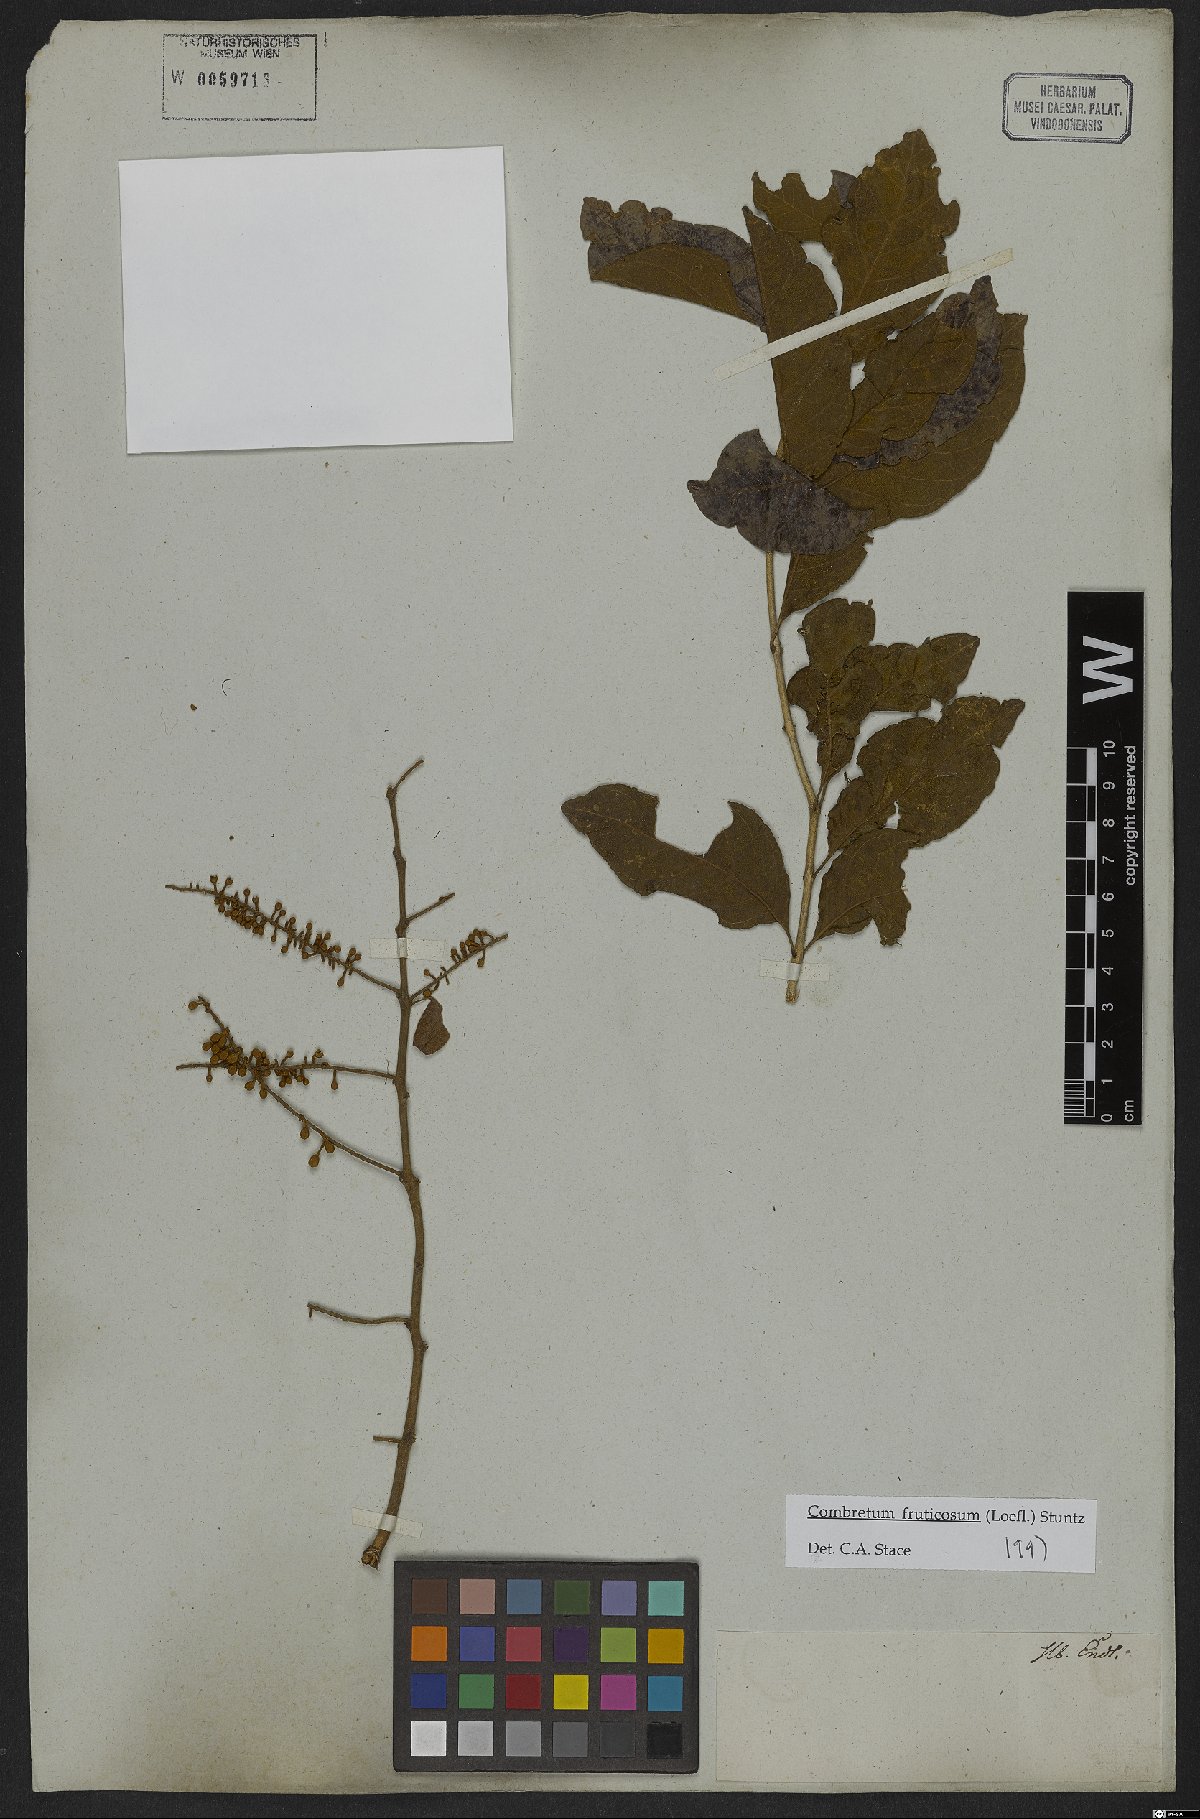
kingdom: Plantae
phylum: Tracheophyta
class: Magnoliopsida
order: Myrtales
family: Combretaceae
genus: Combretum
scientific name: Combretum fruticosum
